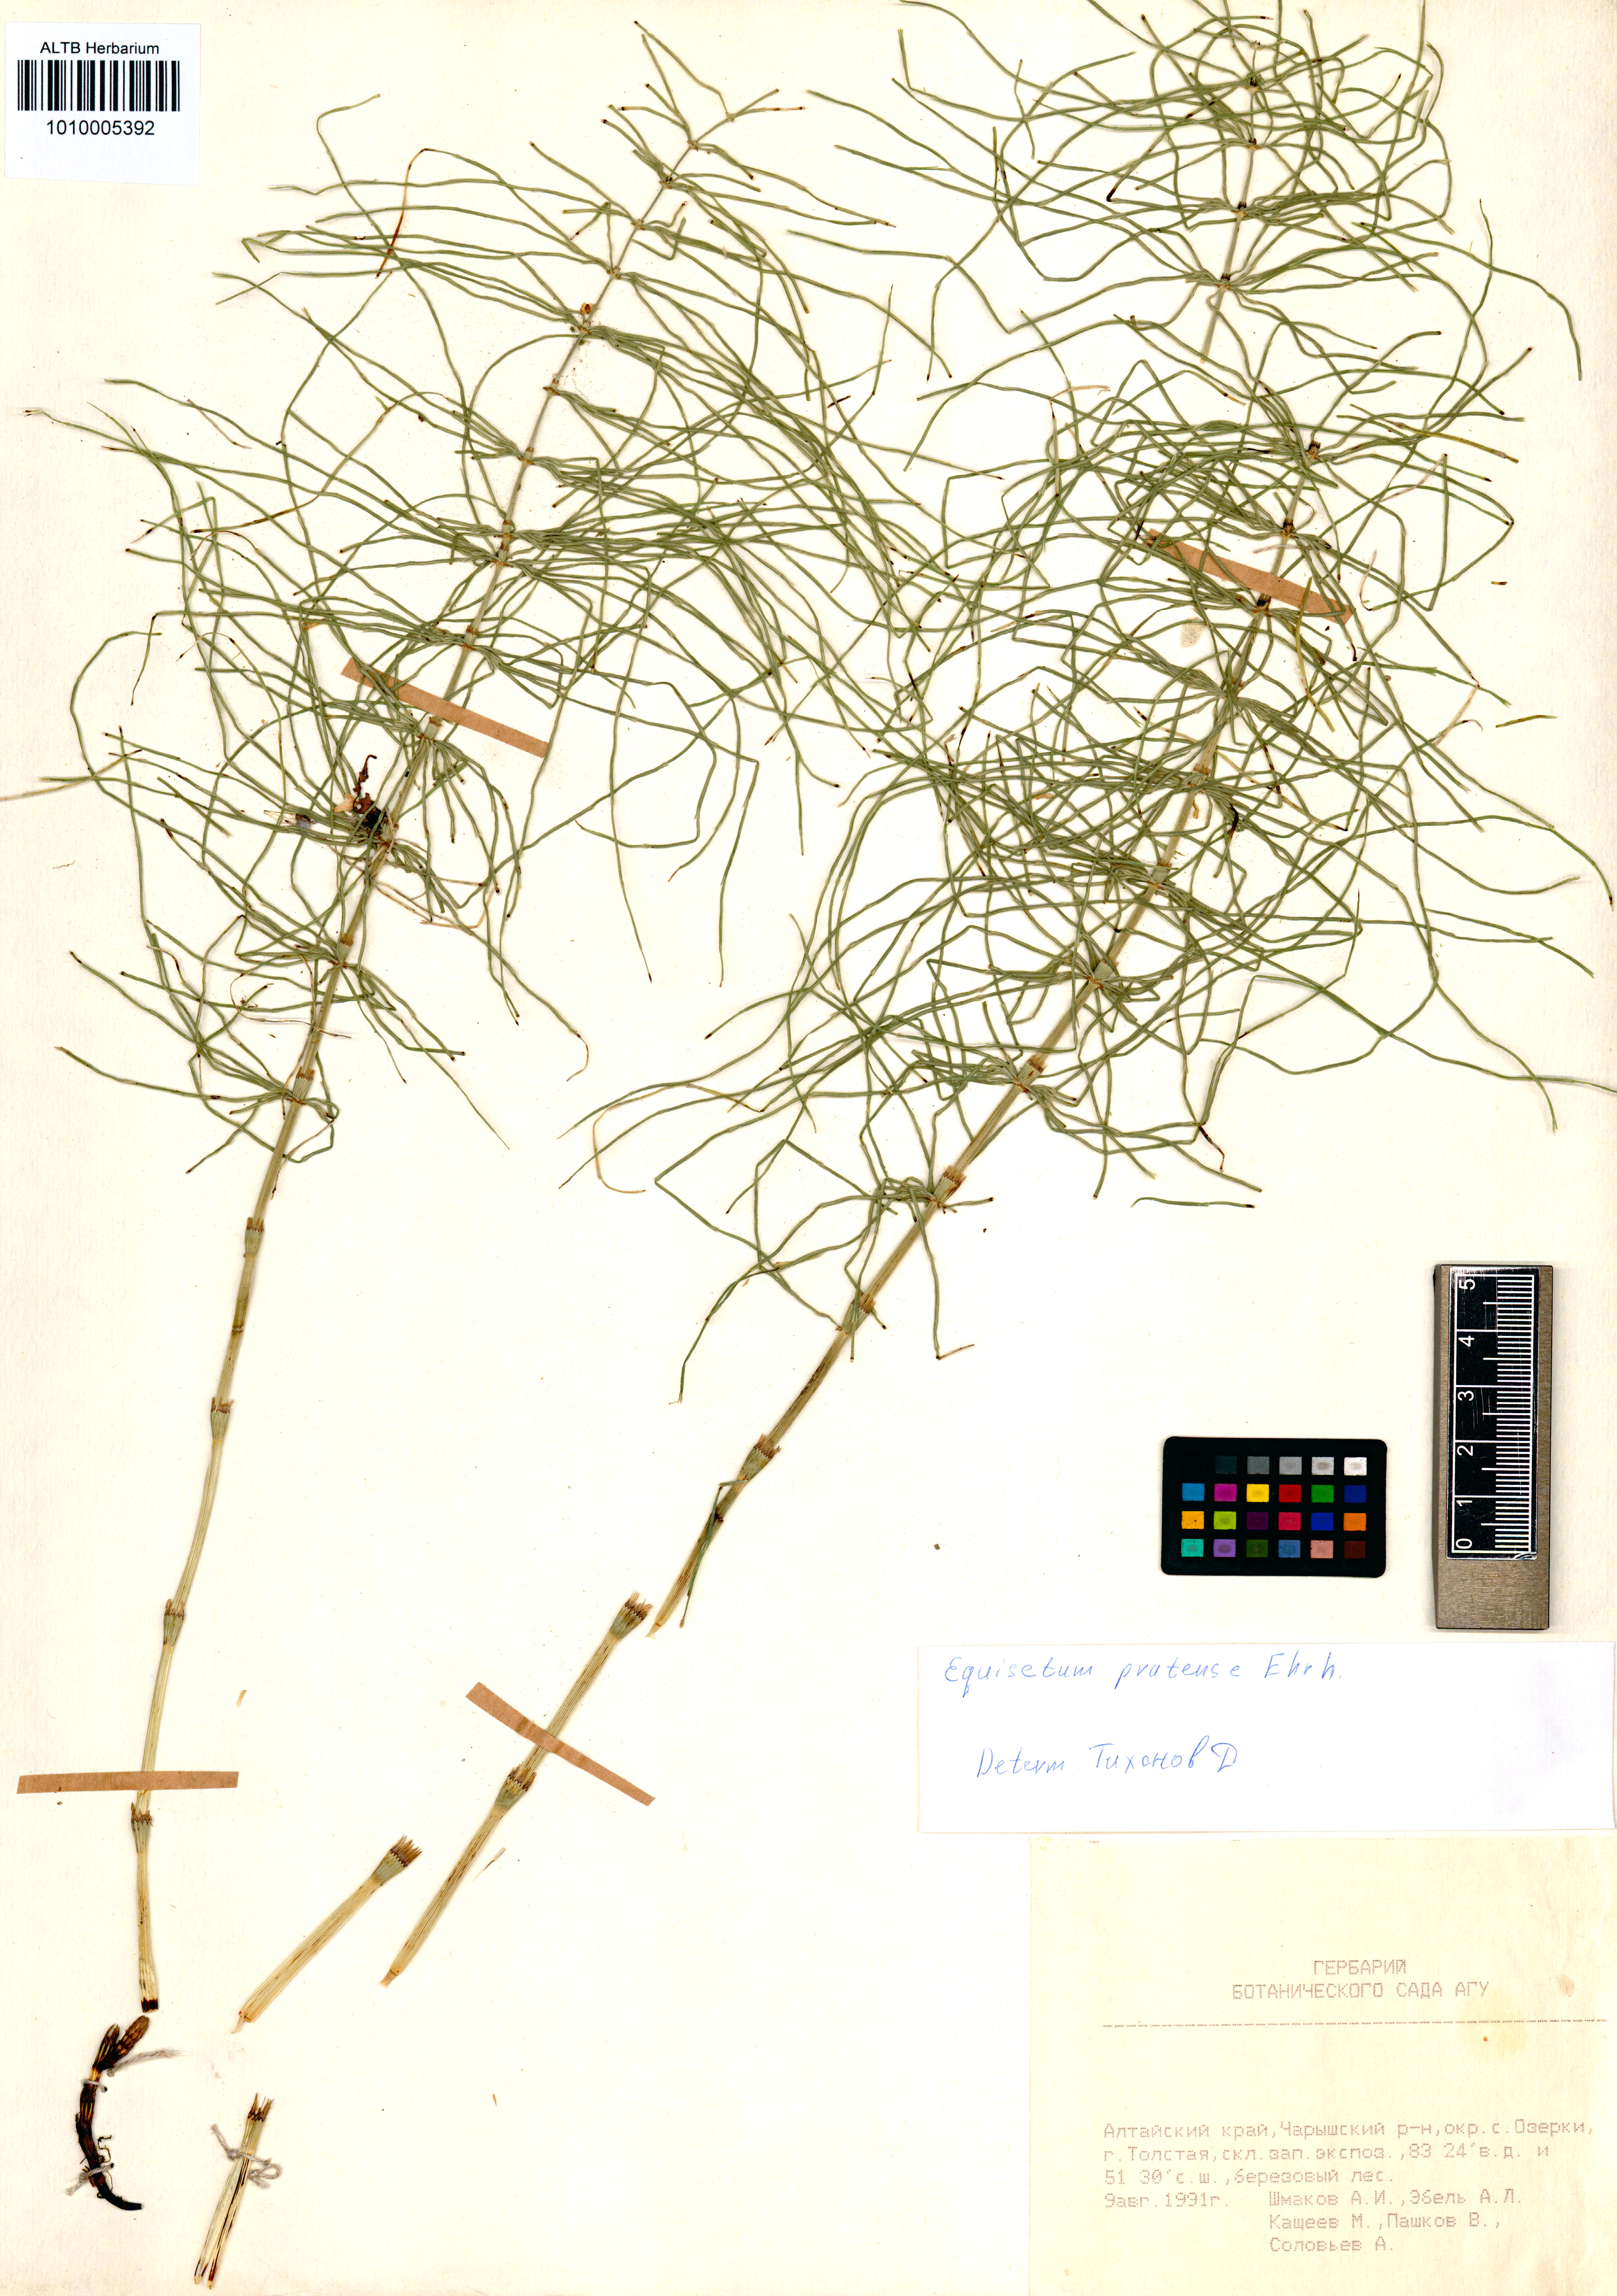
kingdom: Plantae
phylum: Tracheophyta
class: Polypodiopsida
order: Equisetales
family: Equisetaceae
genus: Equisetum
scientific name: Equisetum pratense
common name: Meadow horsetail
